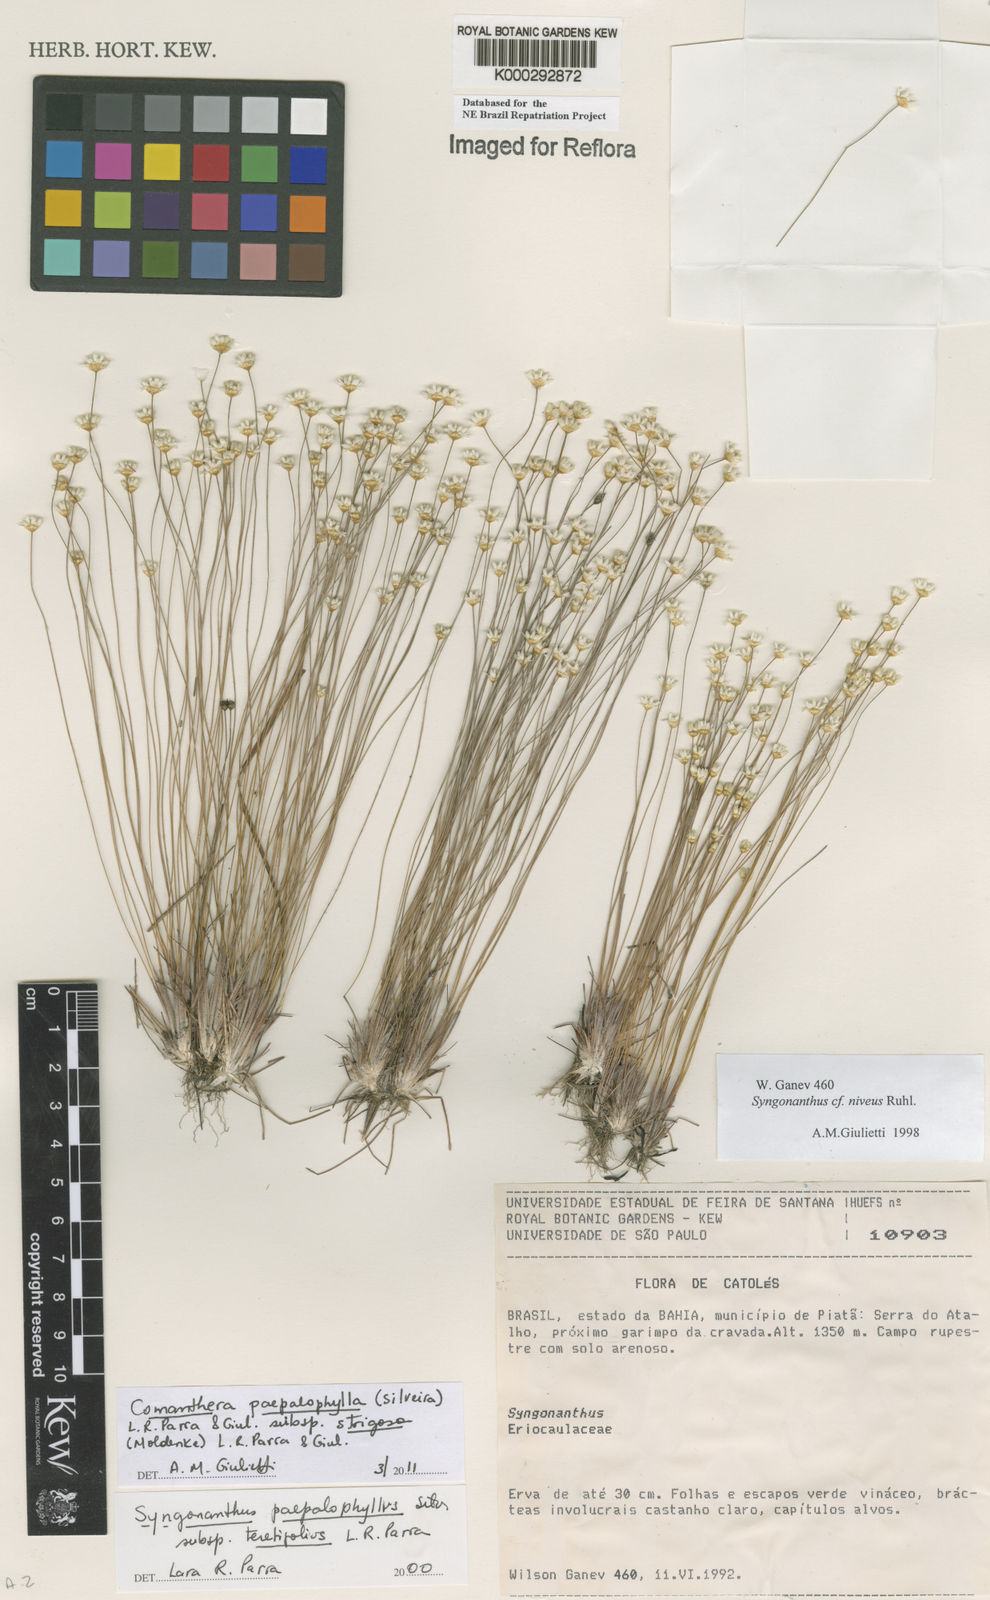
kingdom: Plantae
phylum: Tracheophyta
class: Liliopsida
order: Poales
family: Eriocaulaceae
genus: Comanthera
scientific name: Comanthera paepalophylla
